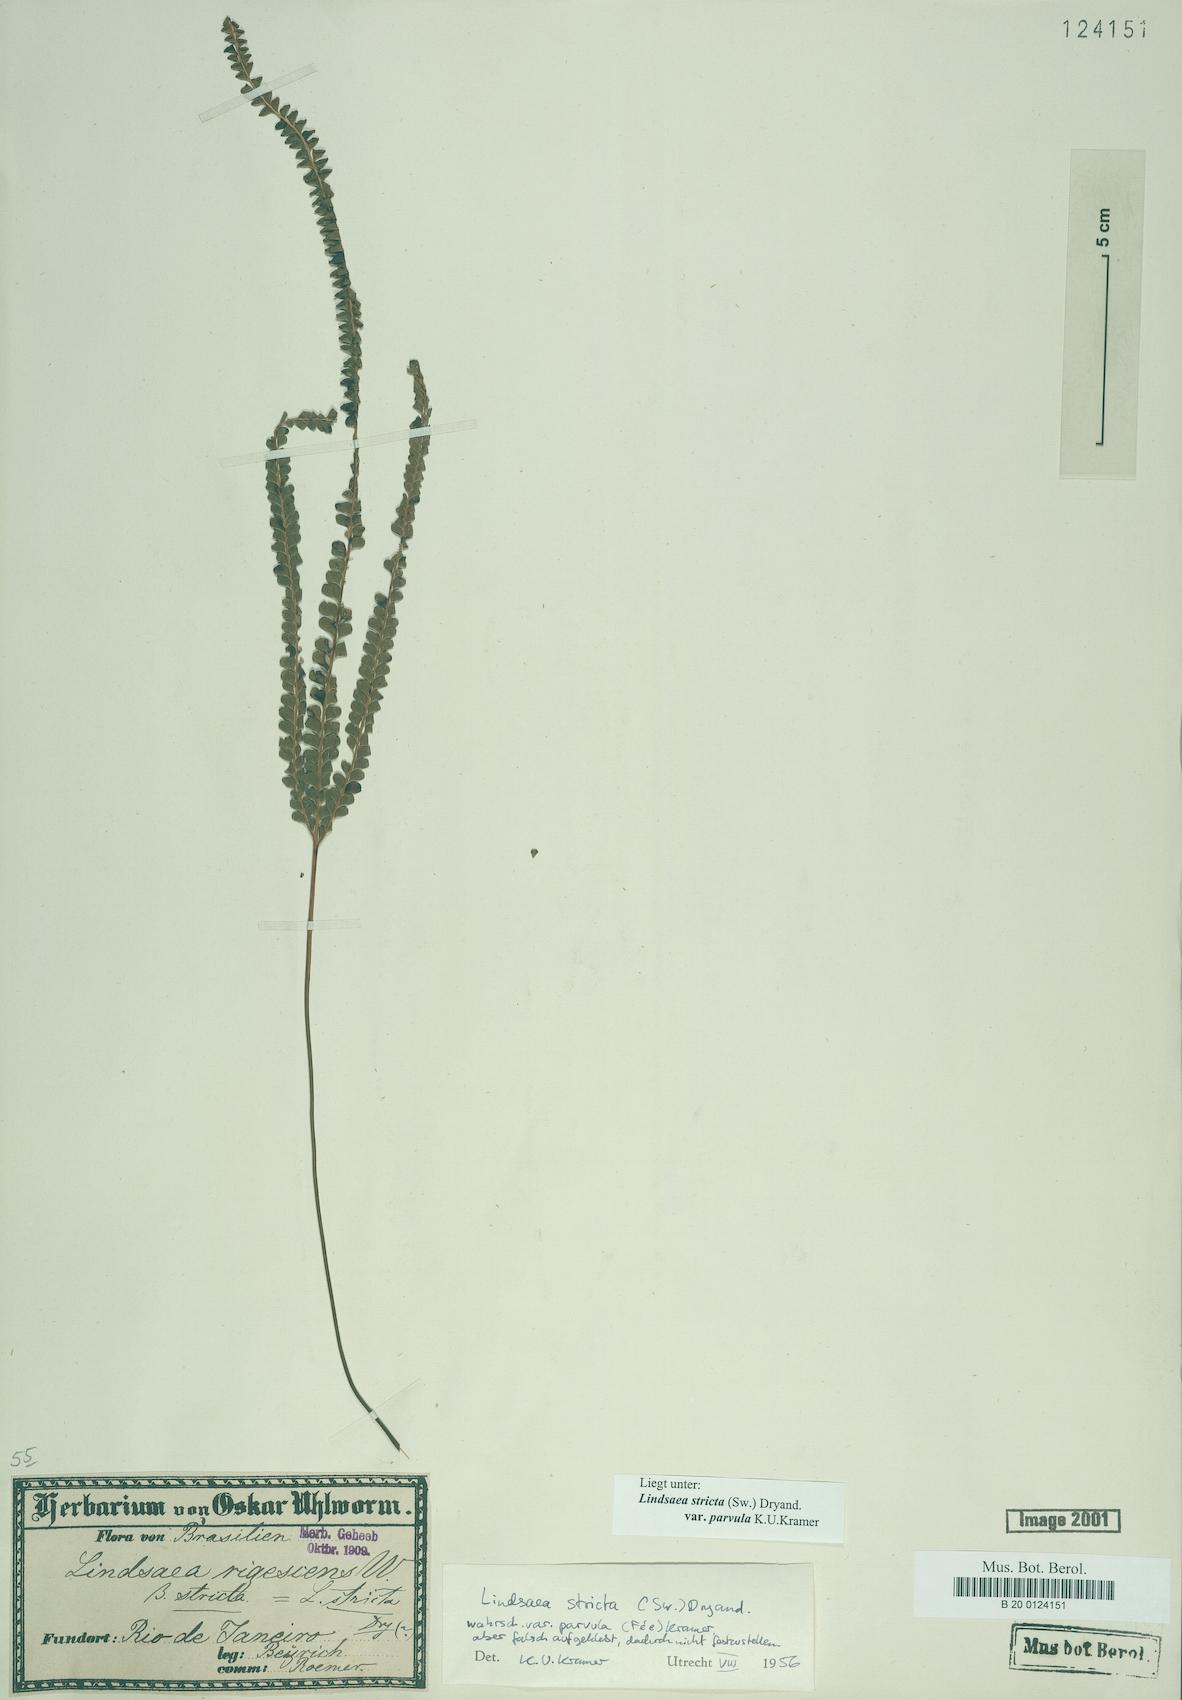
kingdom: Plantae
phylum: Tracheophyta
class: Polypodiopsida
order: Polypodiales
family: Lindsaeaceae
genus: Lindsaea
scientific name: Lindsaea stricta
